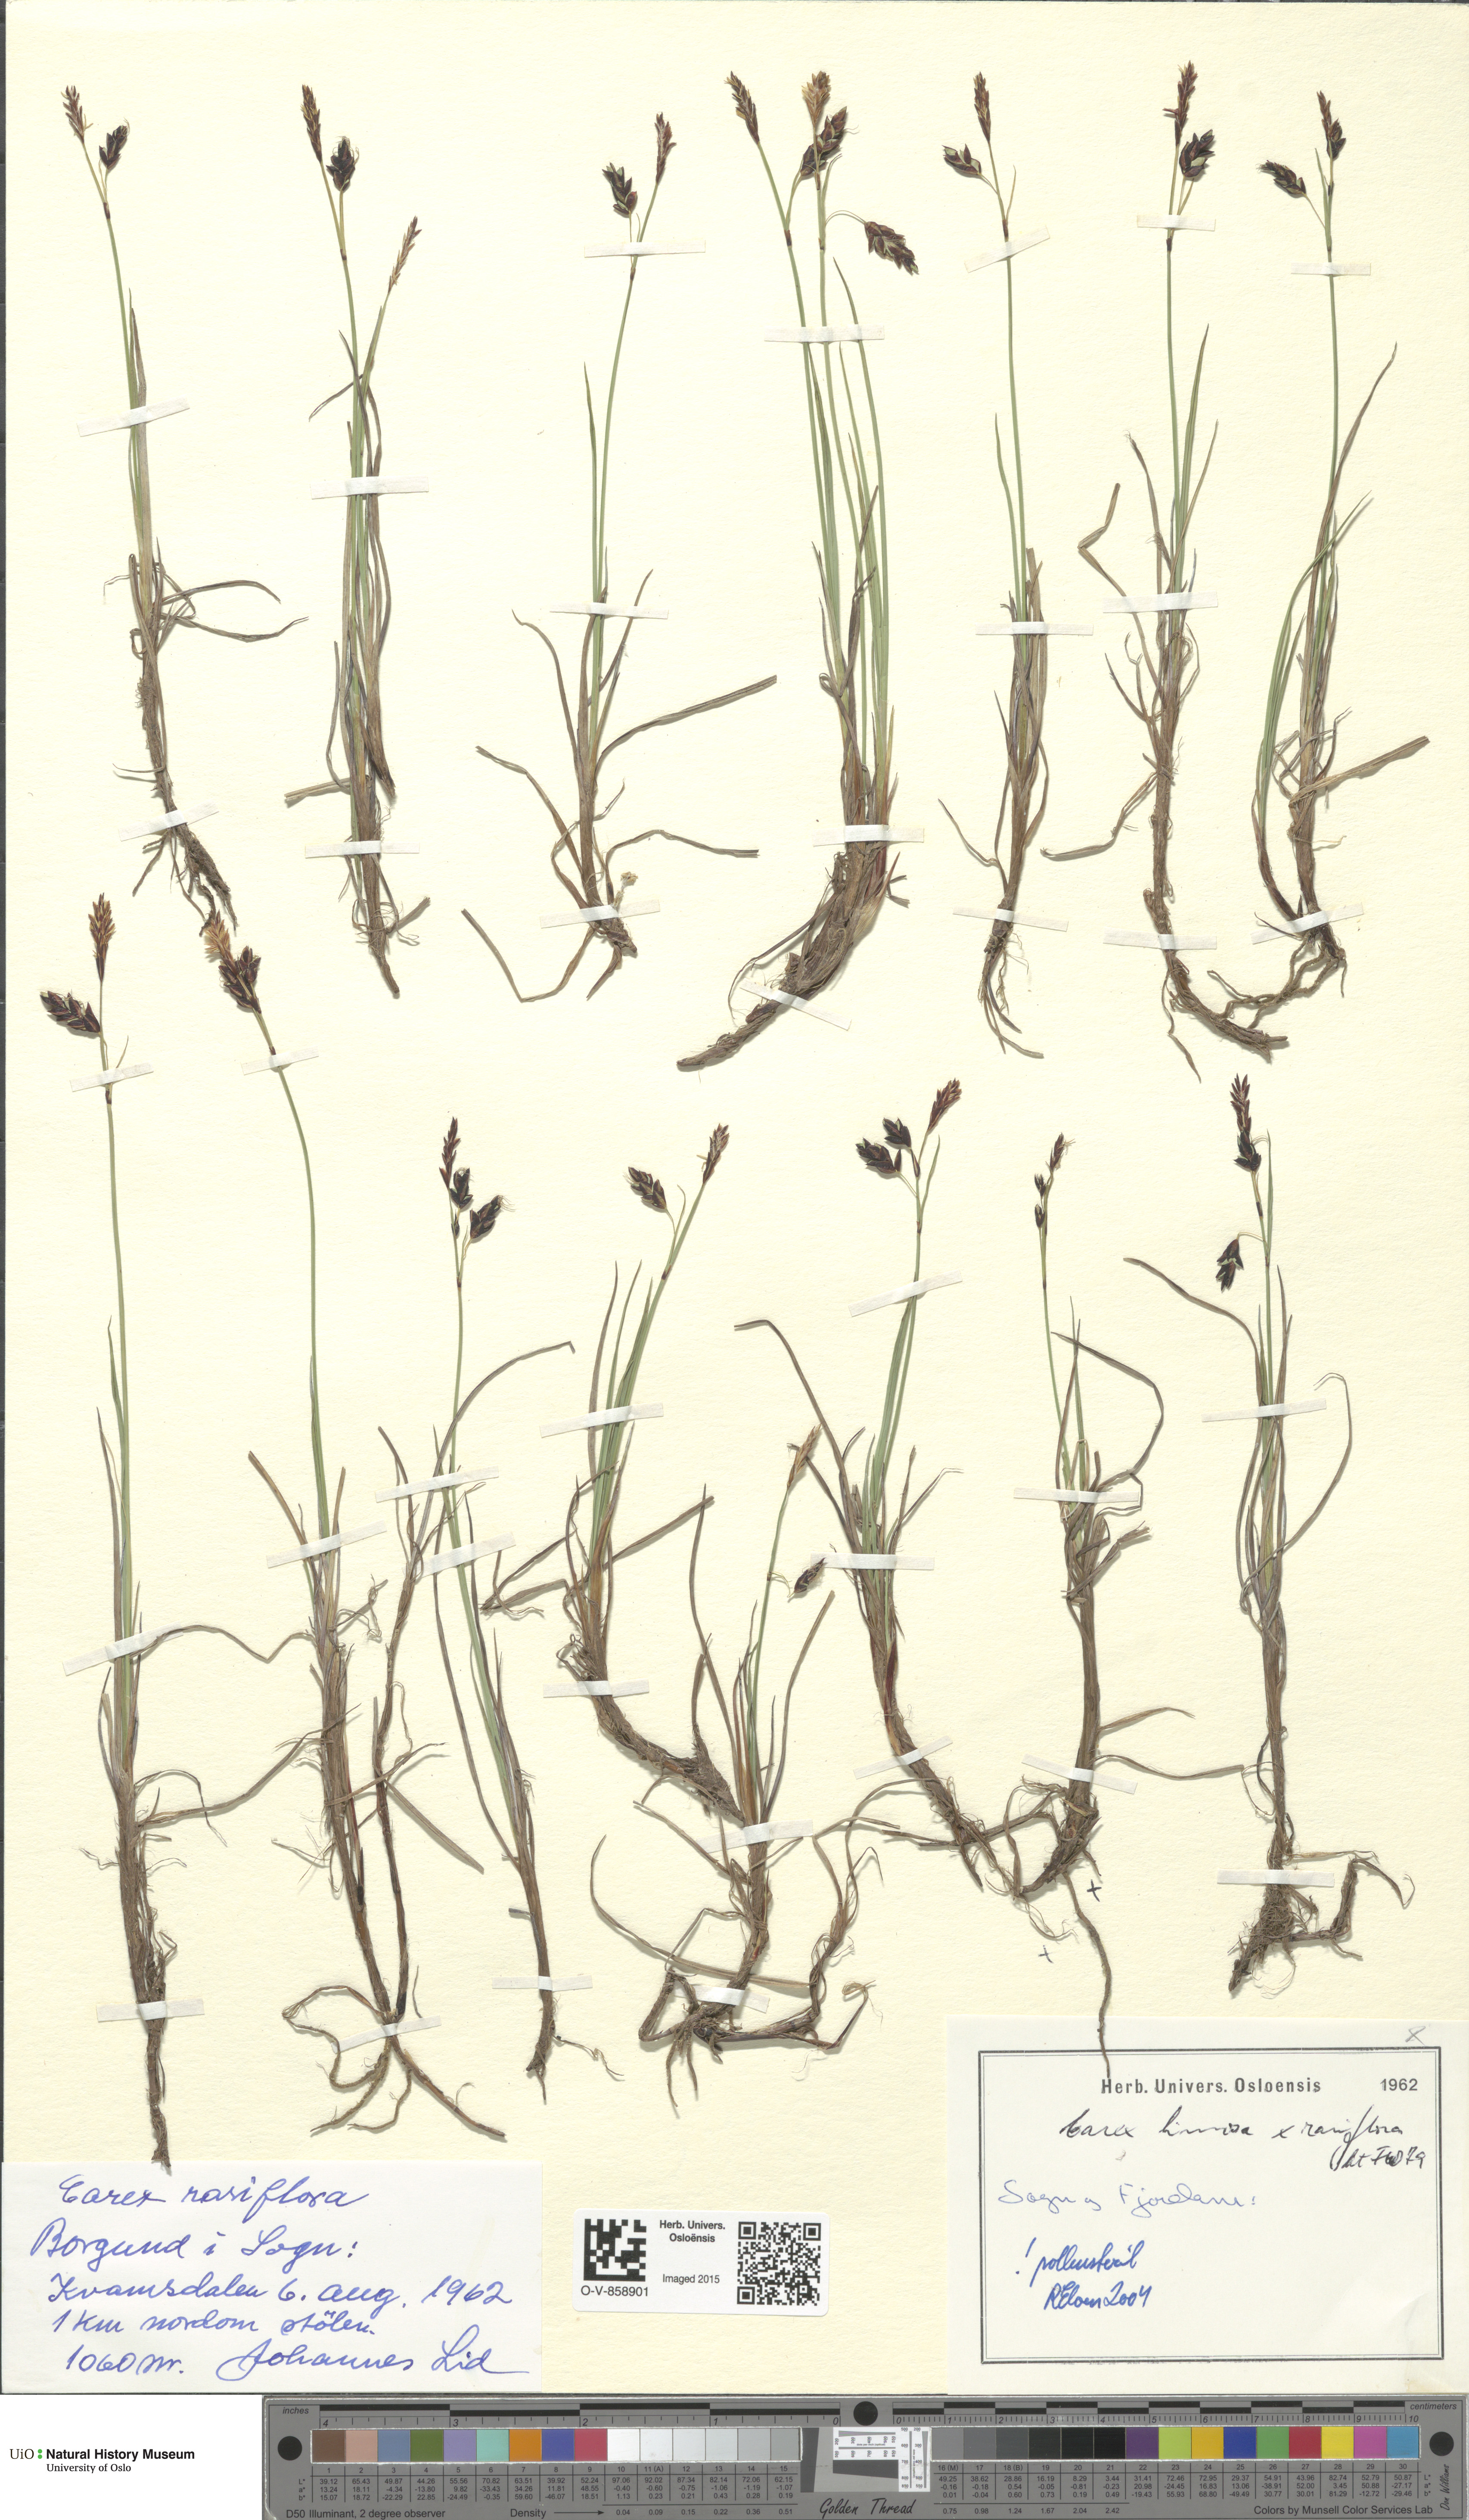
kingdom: Plantae
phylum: Tracheophyta
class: Liliopsida
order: Poales
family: Cyperaceae
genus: Carex
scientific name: Carex
